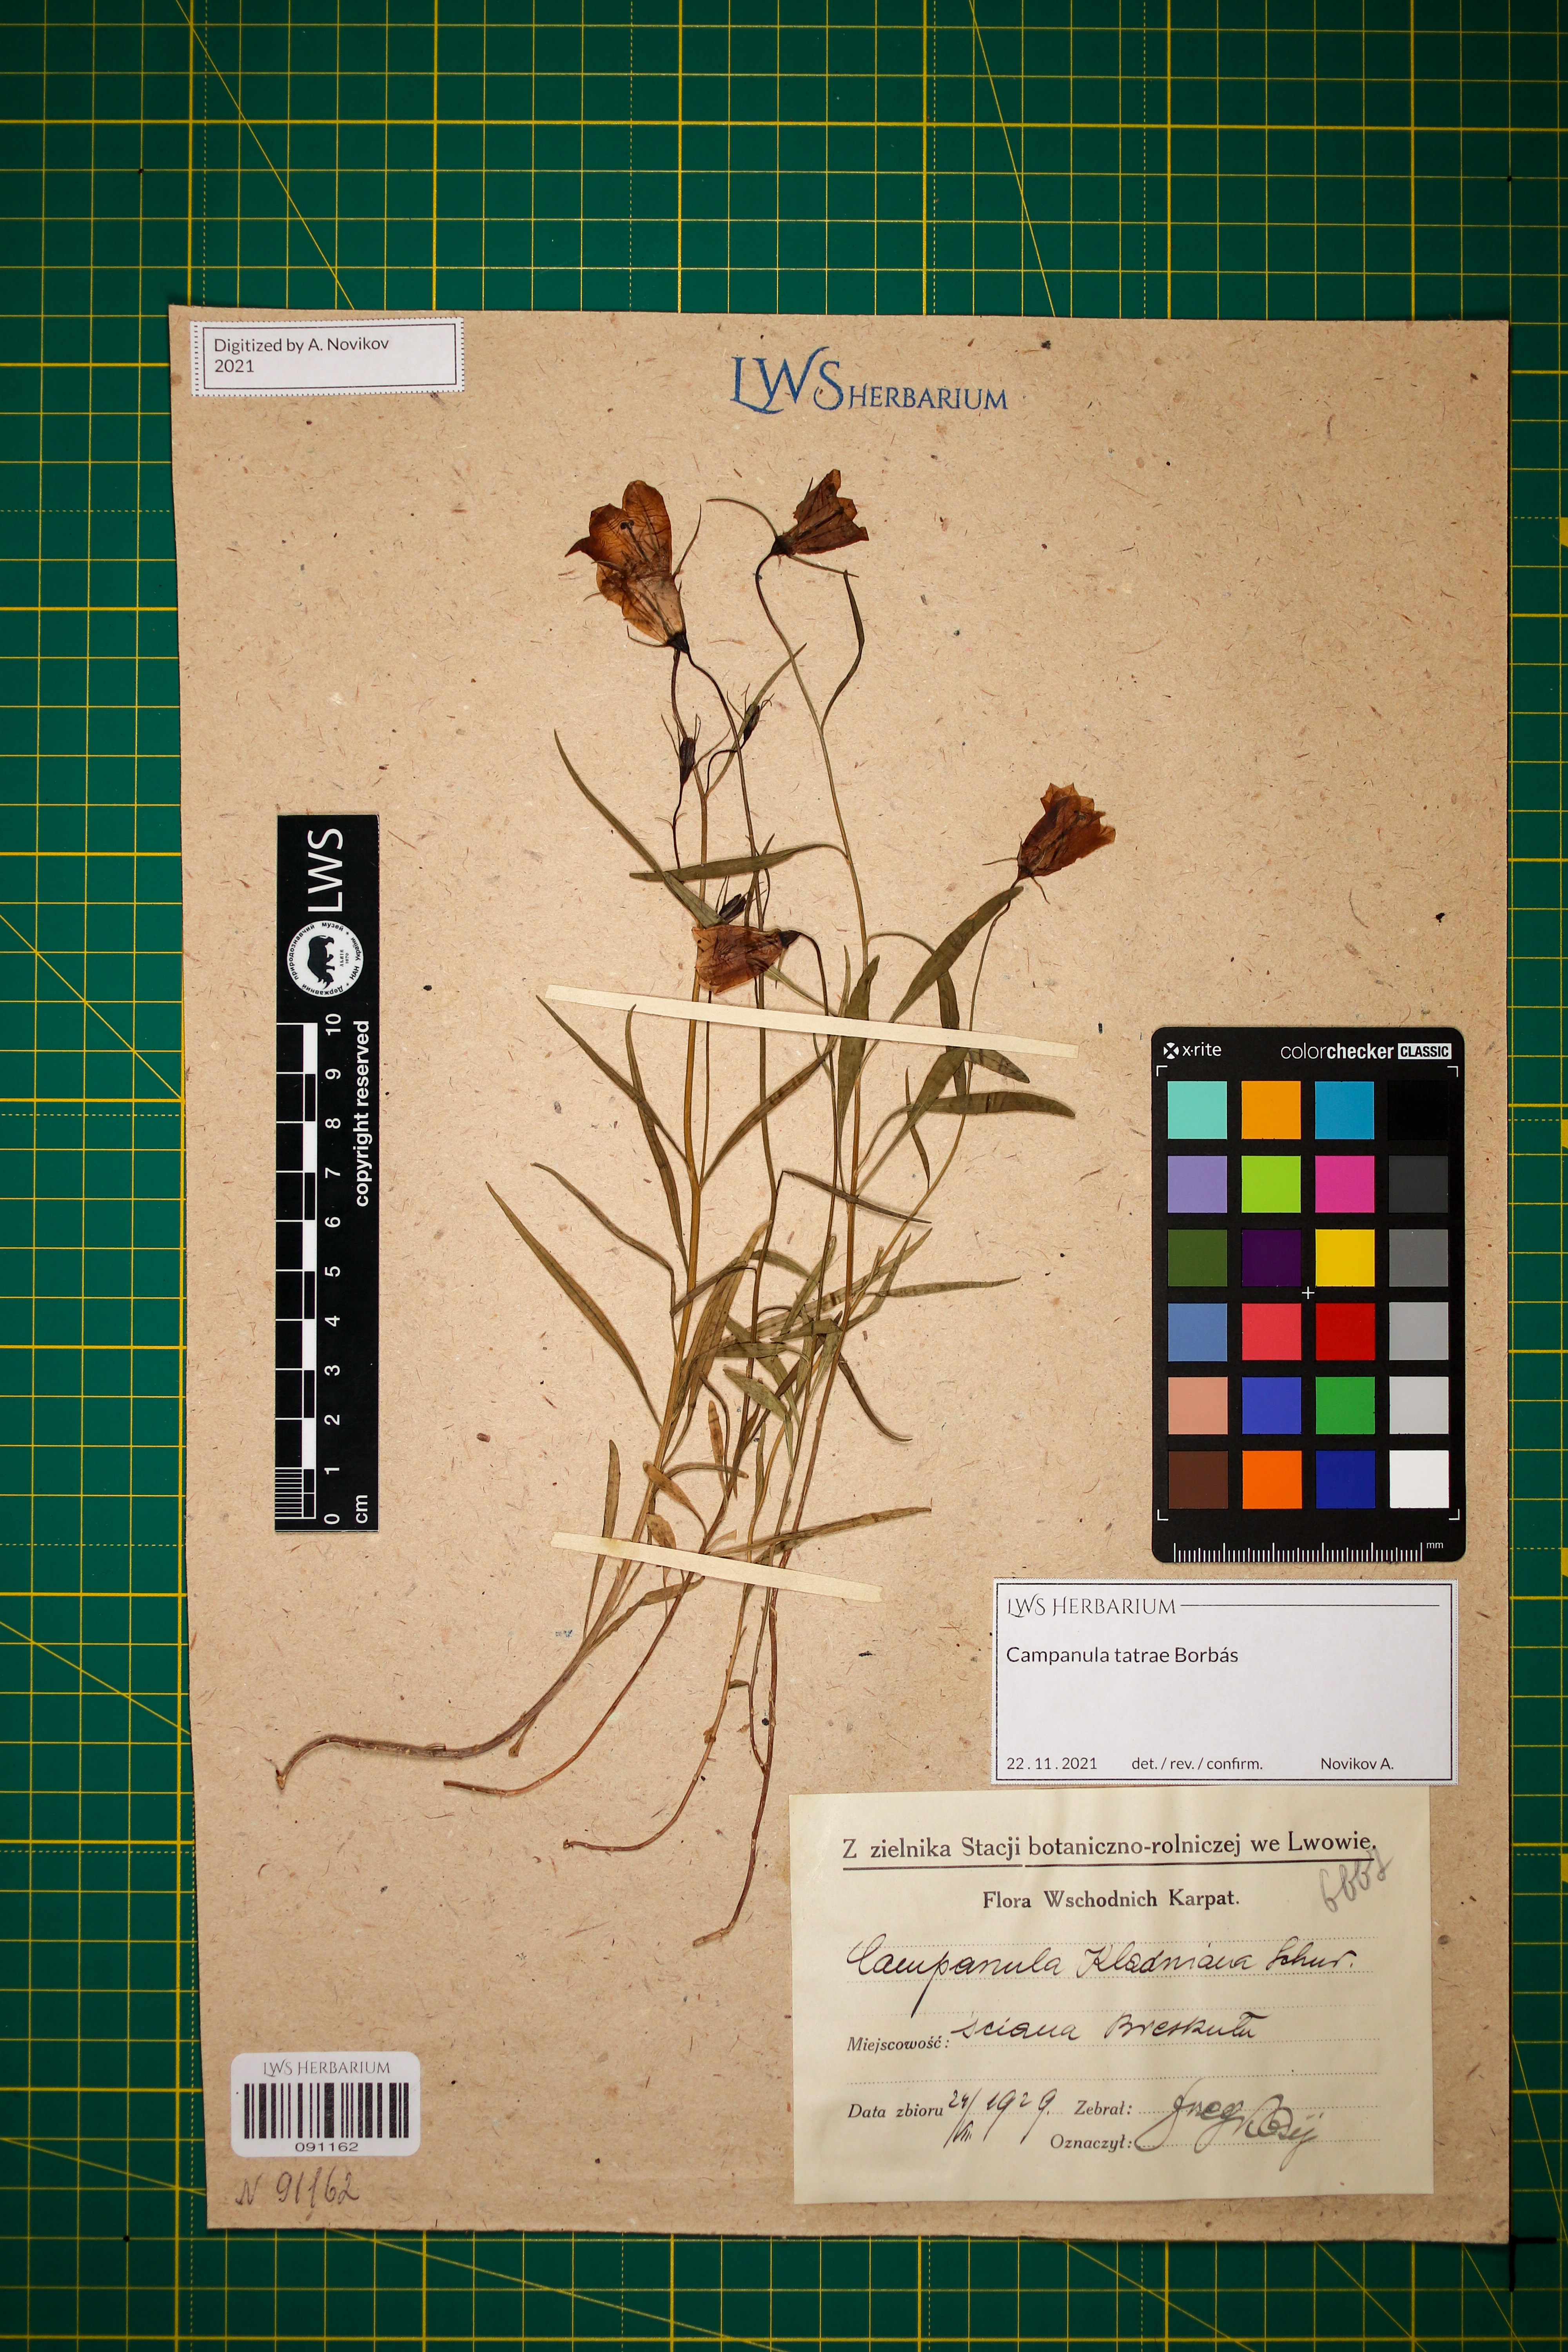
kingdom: Plantae
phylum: Tracheophyta
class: Magnoliopsida
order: Asterales
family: Campanulaceae
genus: Campanula
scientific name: Campanula kladniana
